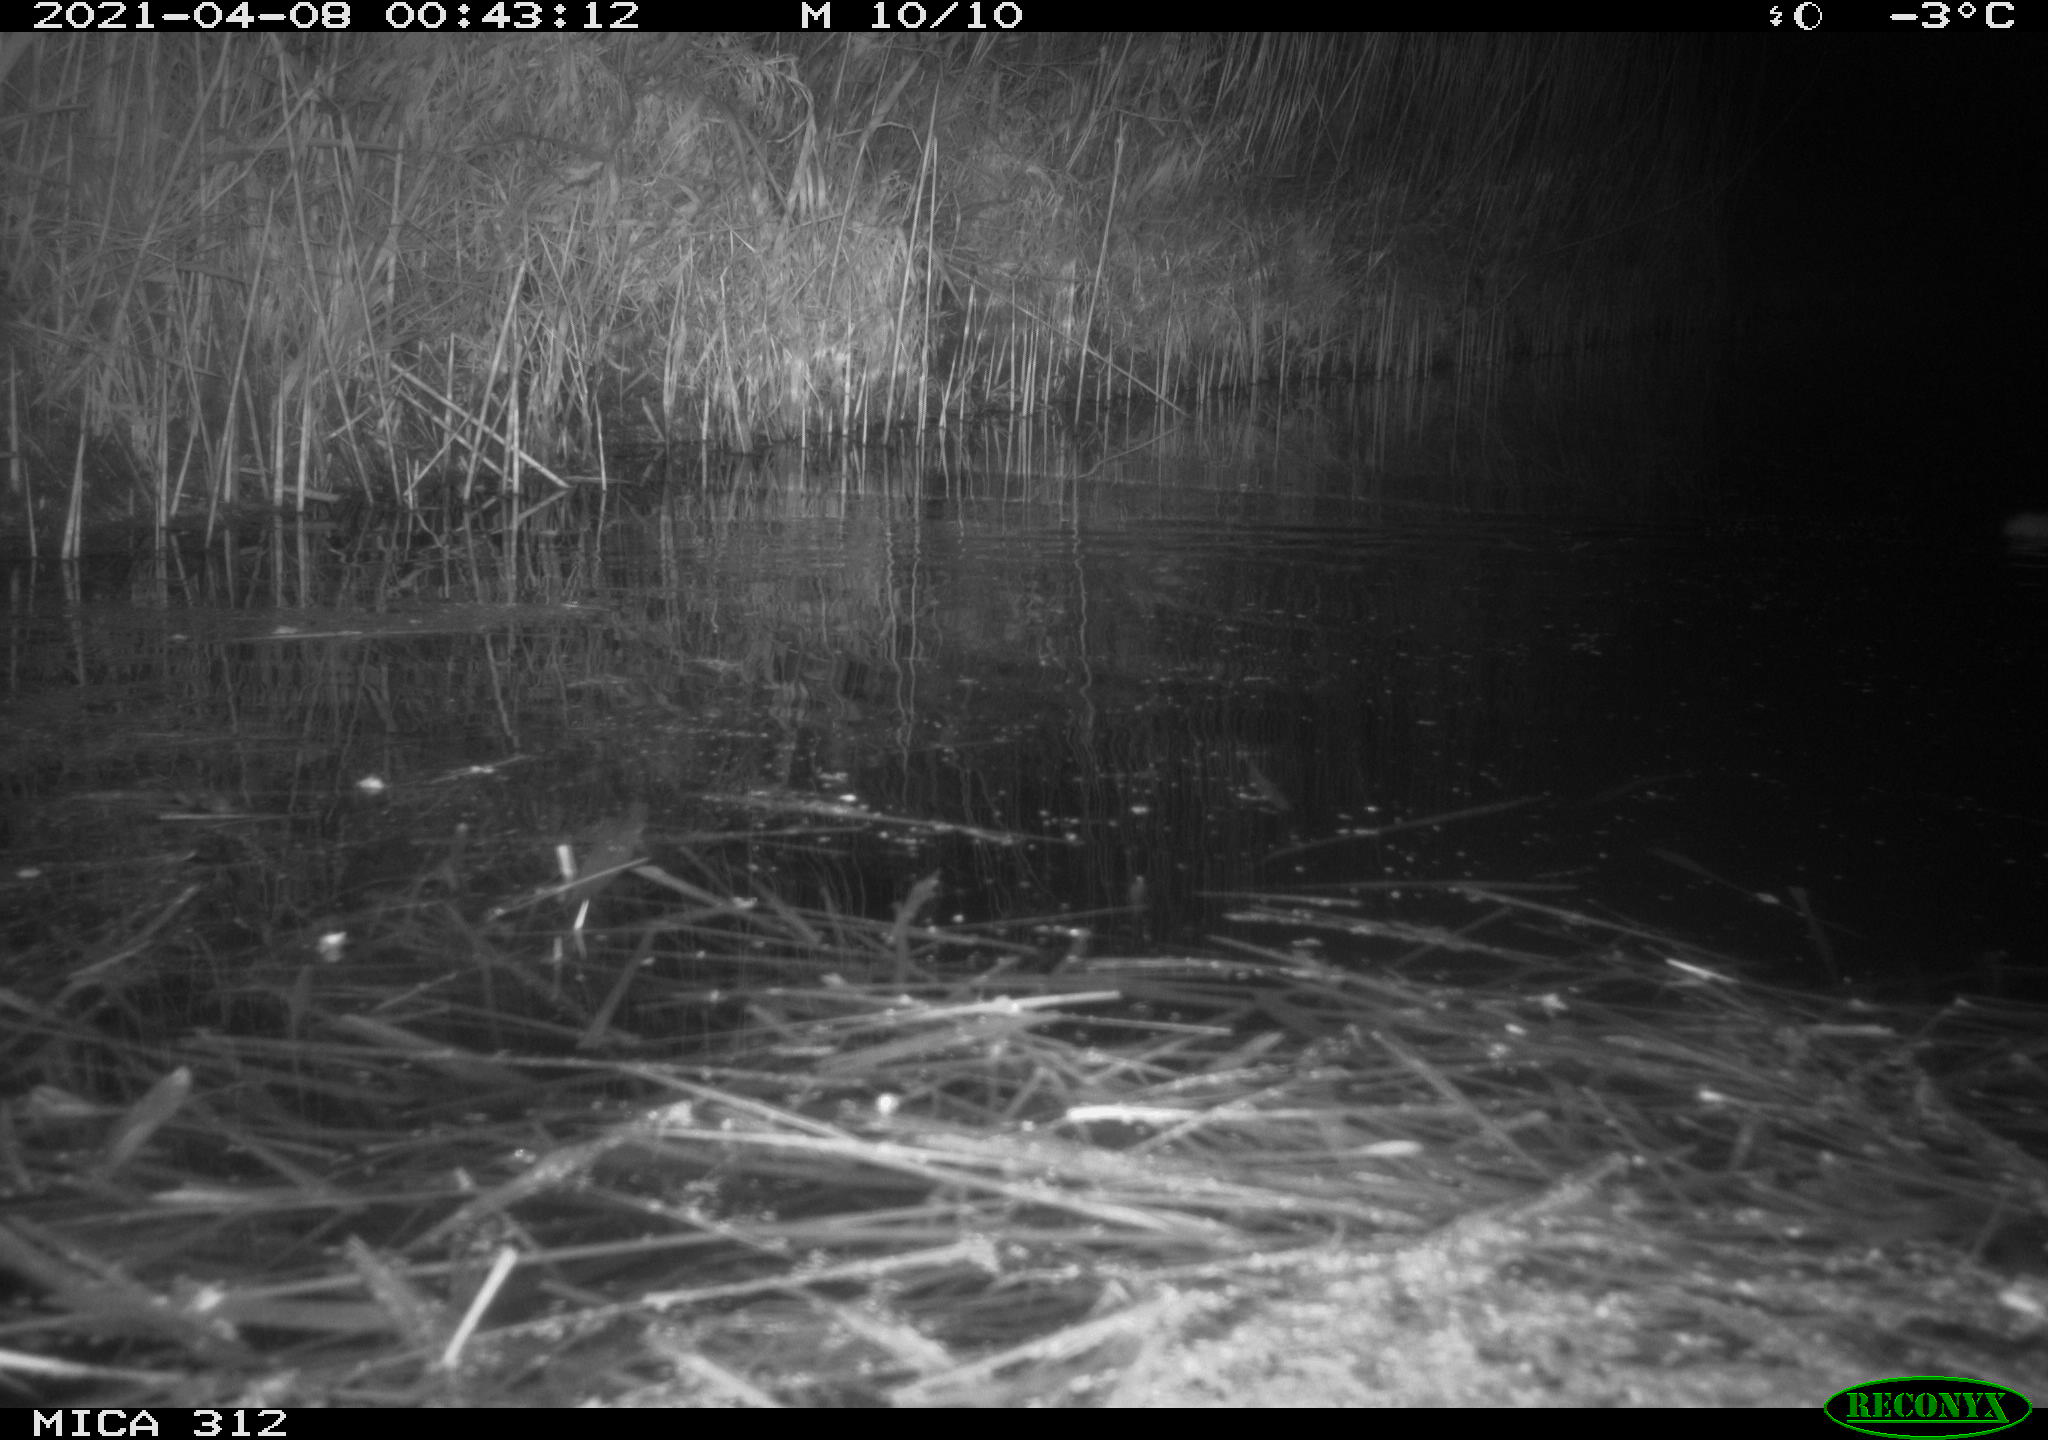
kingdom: Animalia
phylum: Chordata
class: Mammalia
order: Rodentia
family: Muridae
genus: Rattus
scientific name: Rattus norvegicus
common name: Brown rat
